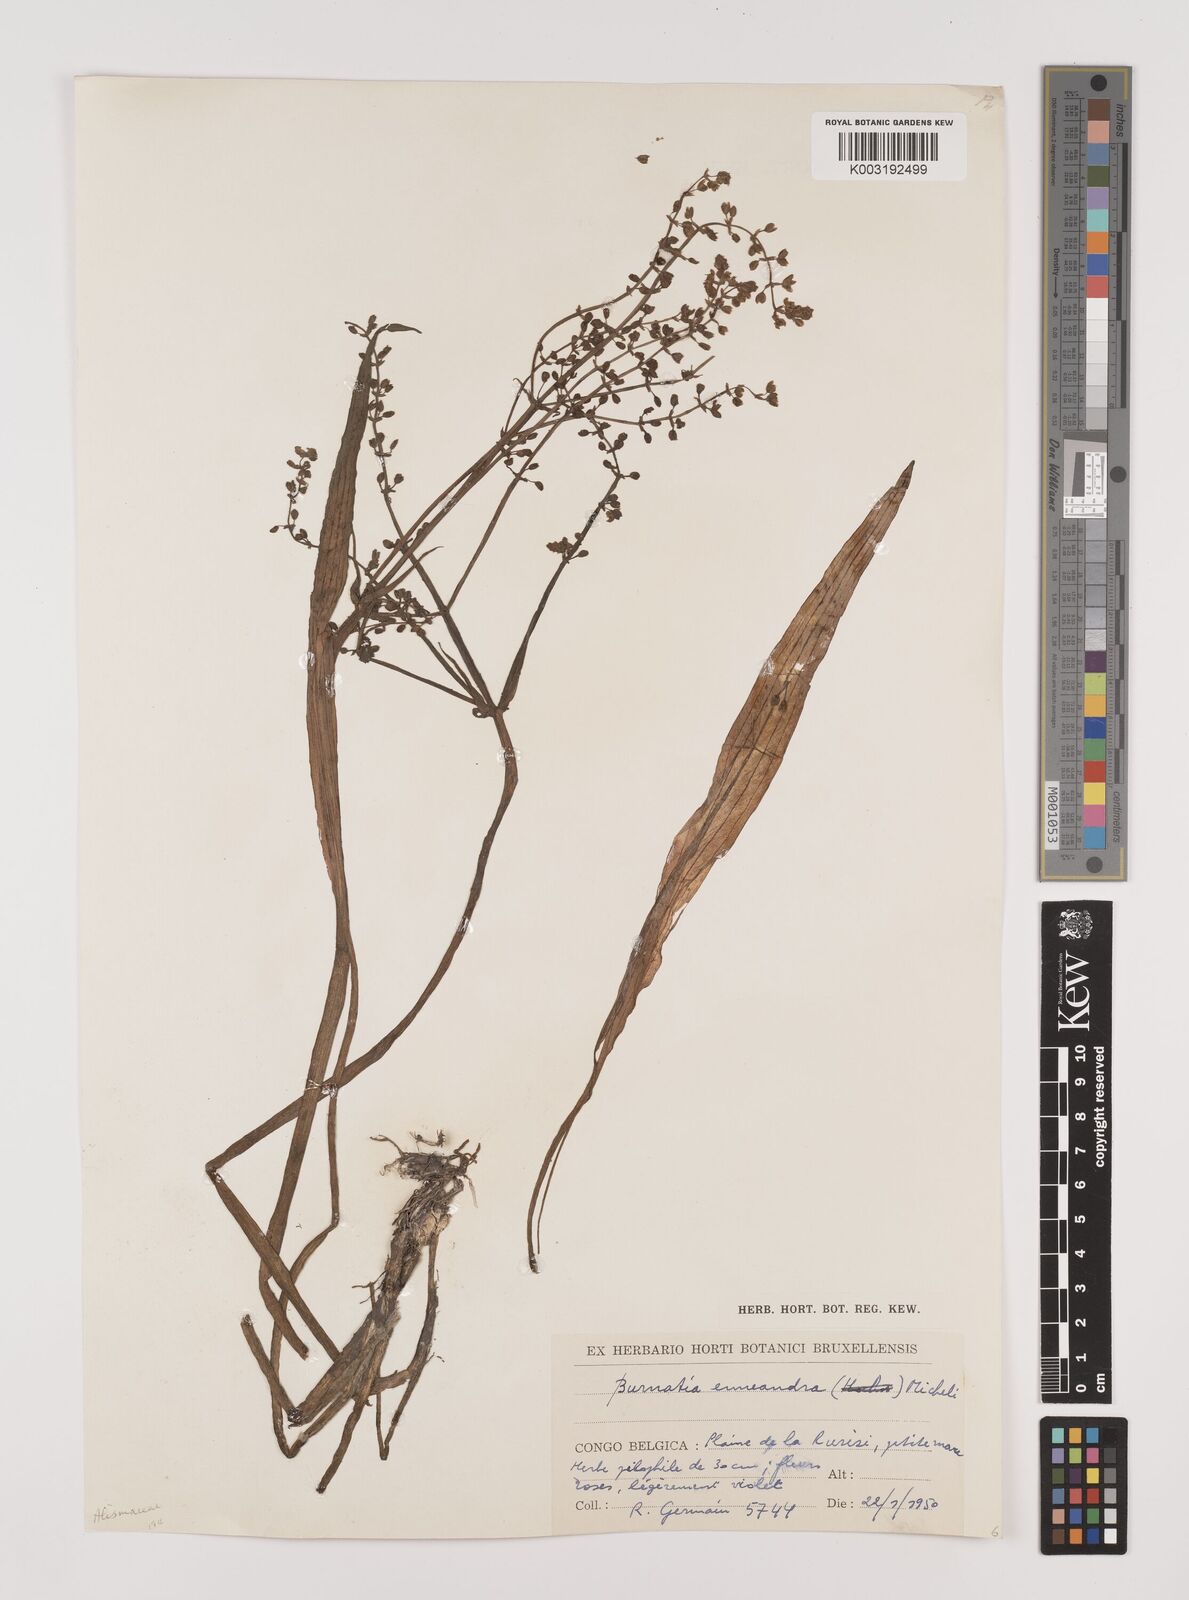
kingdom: Plantae
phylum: Tracheophyta
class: Liliopsida
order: Alismatales
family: Alismataceae
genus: Burnatia
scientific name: Burnatia enneandra
